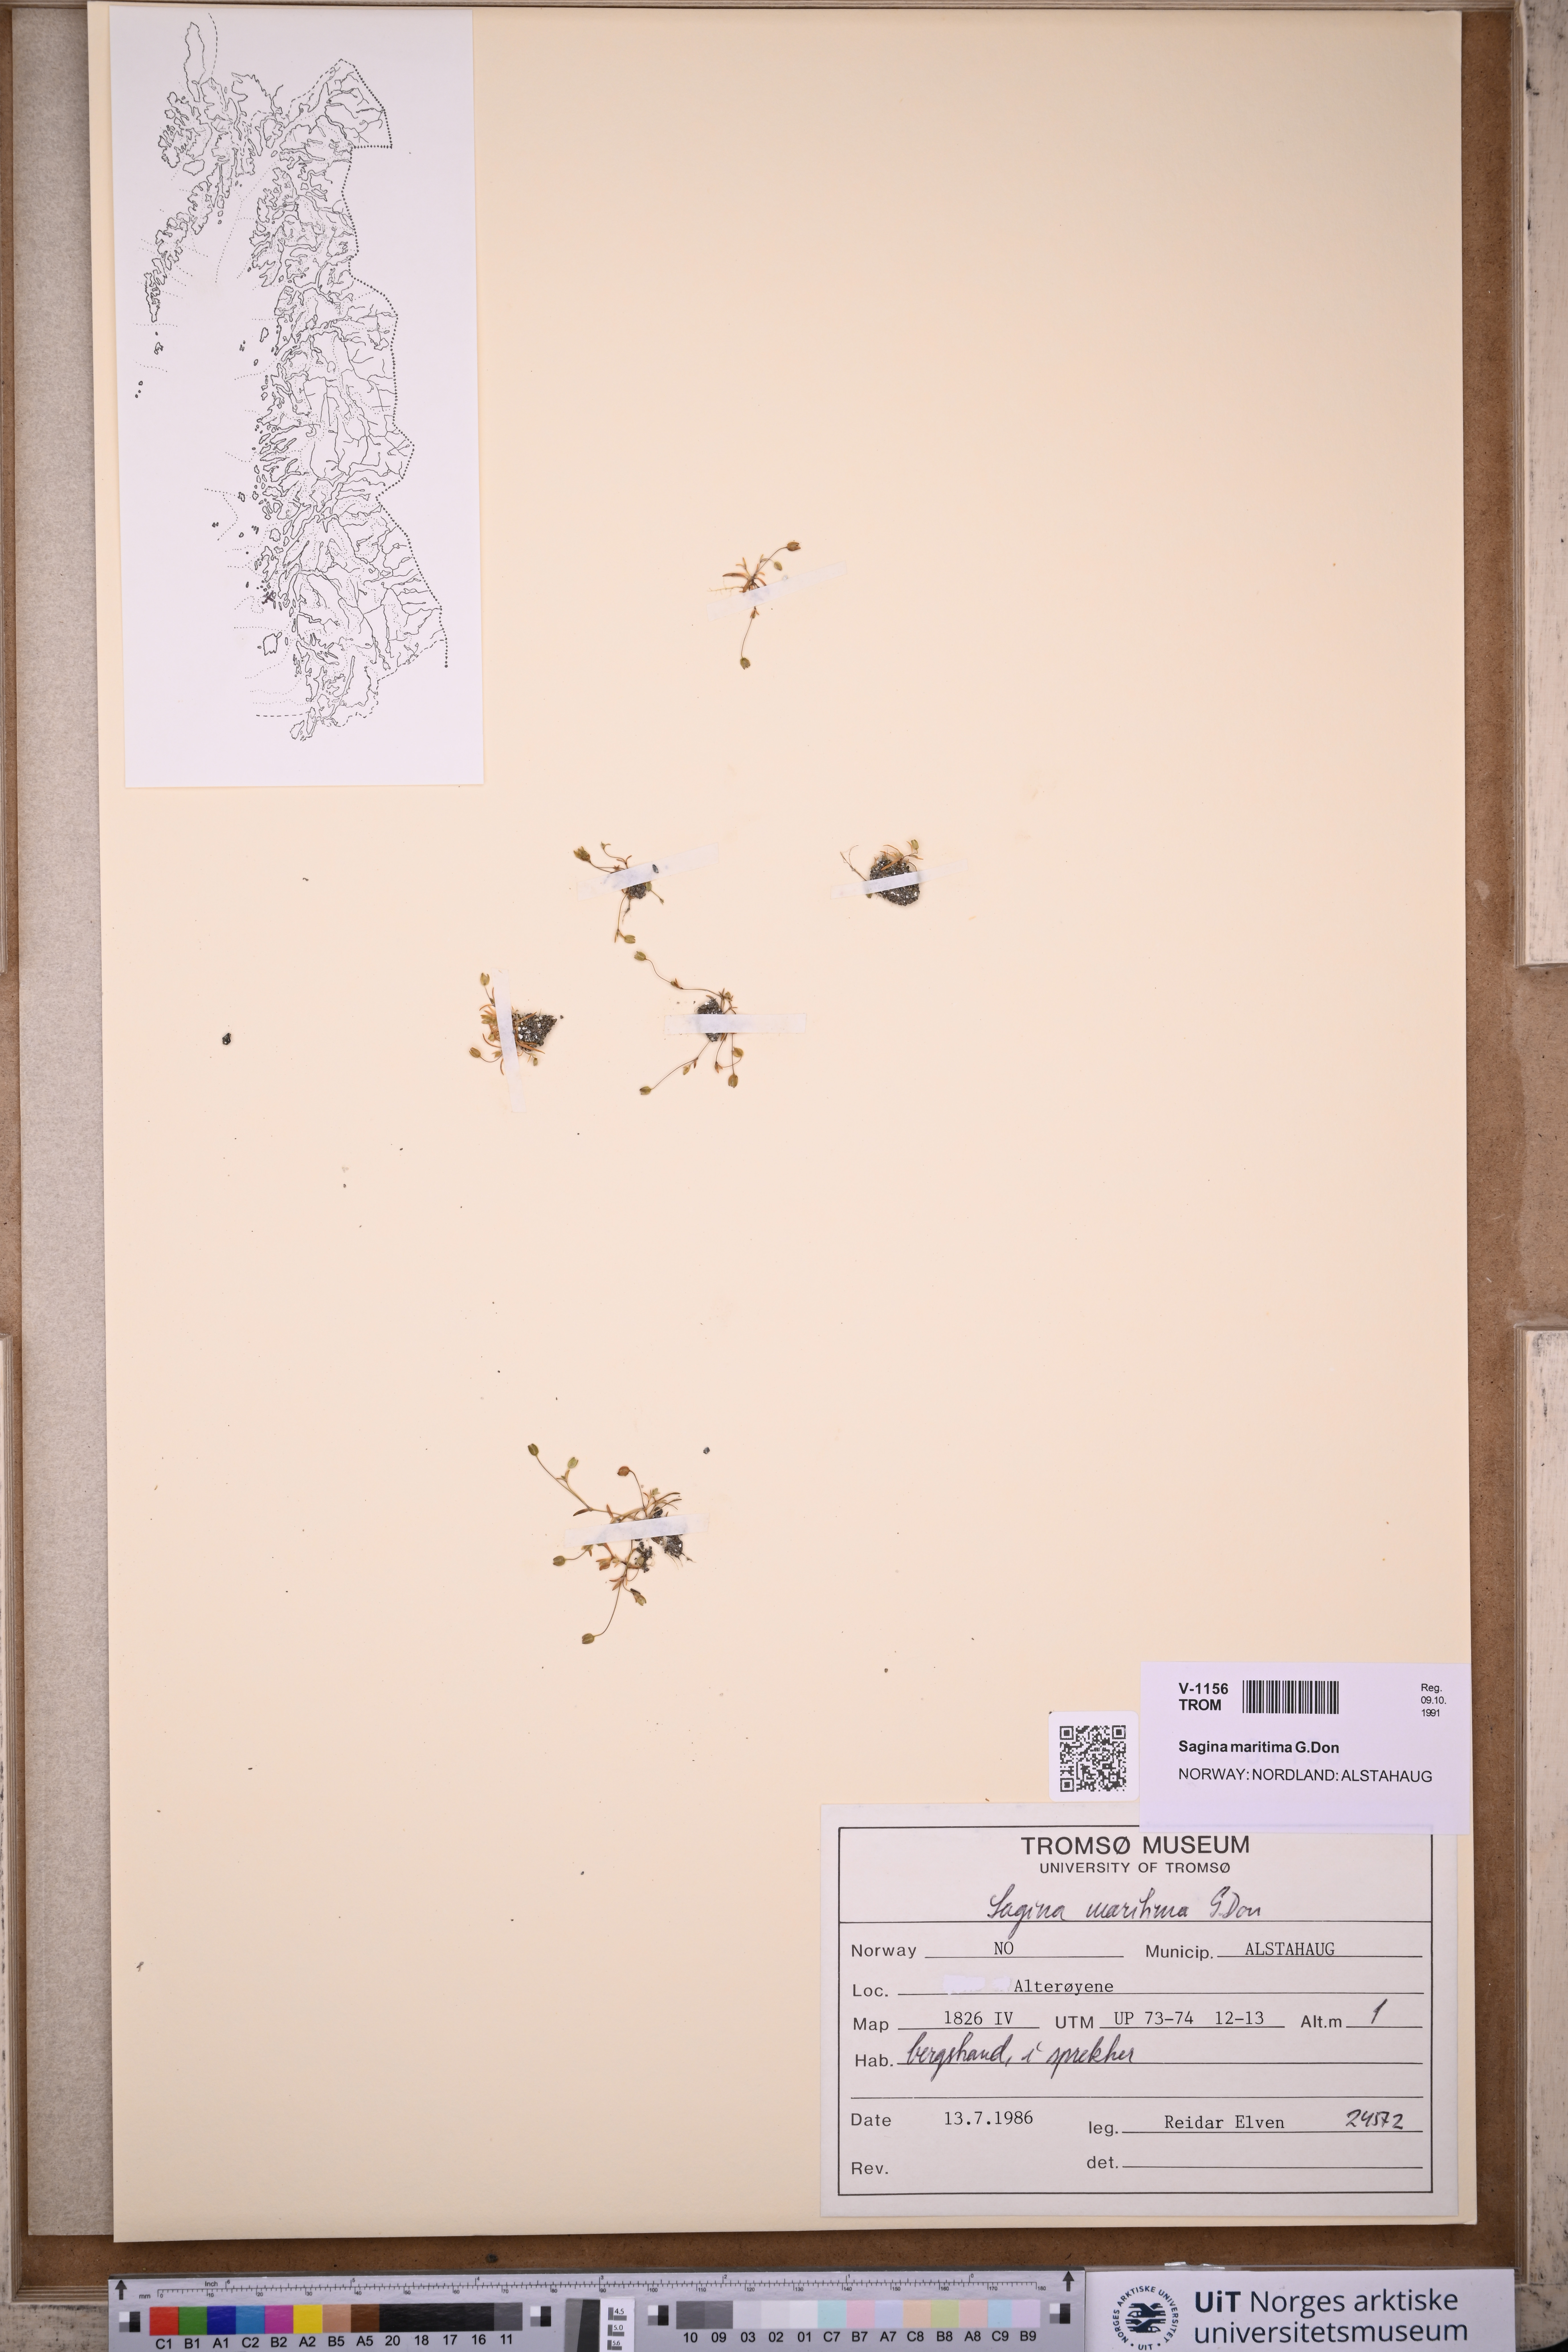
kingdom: Plantae
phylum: Tracheophyta
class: Magnoliopsida
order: Caryophyllales
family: Caryophyllaceae
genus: Sagina
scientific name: Sagina maritima
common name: Sea pearlwort
